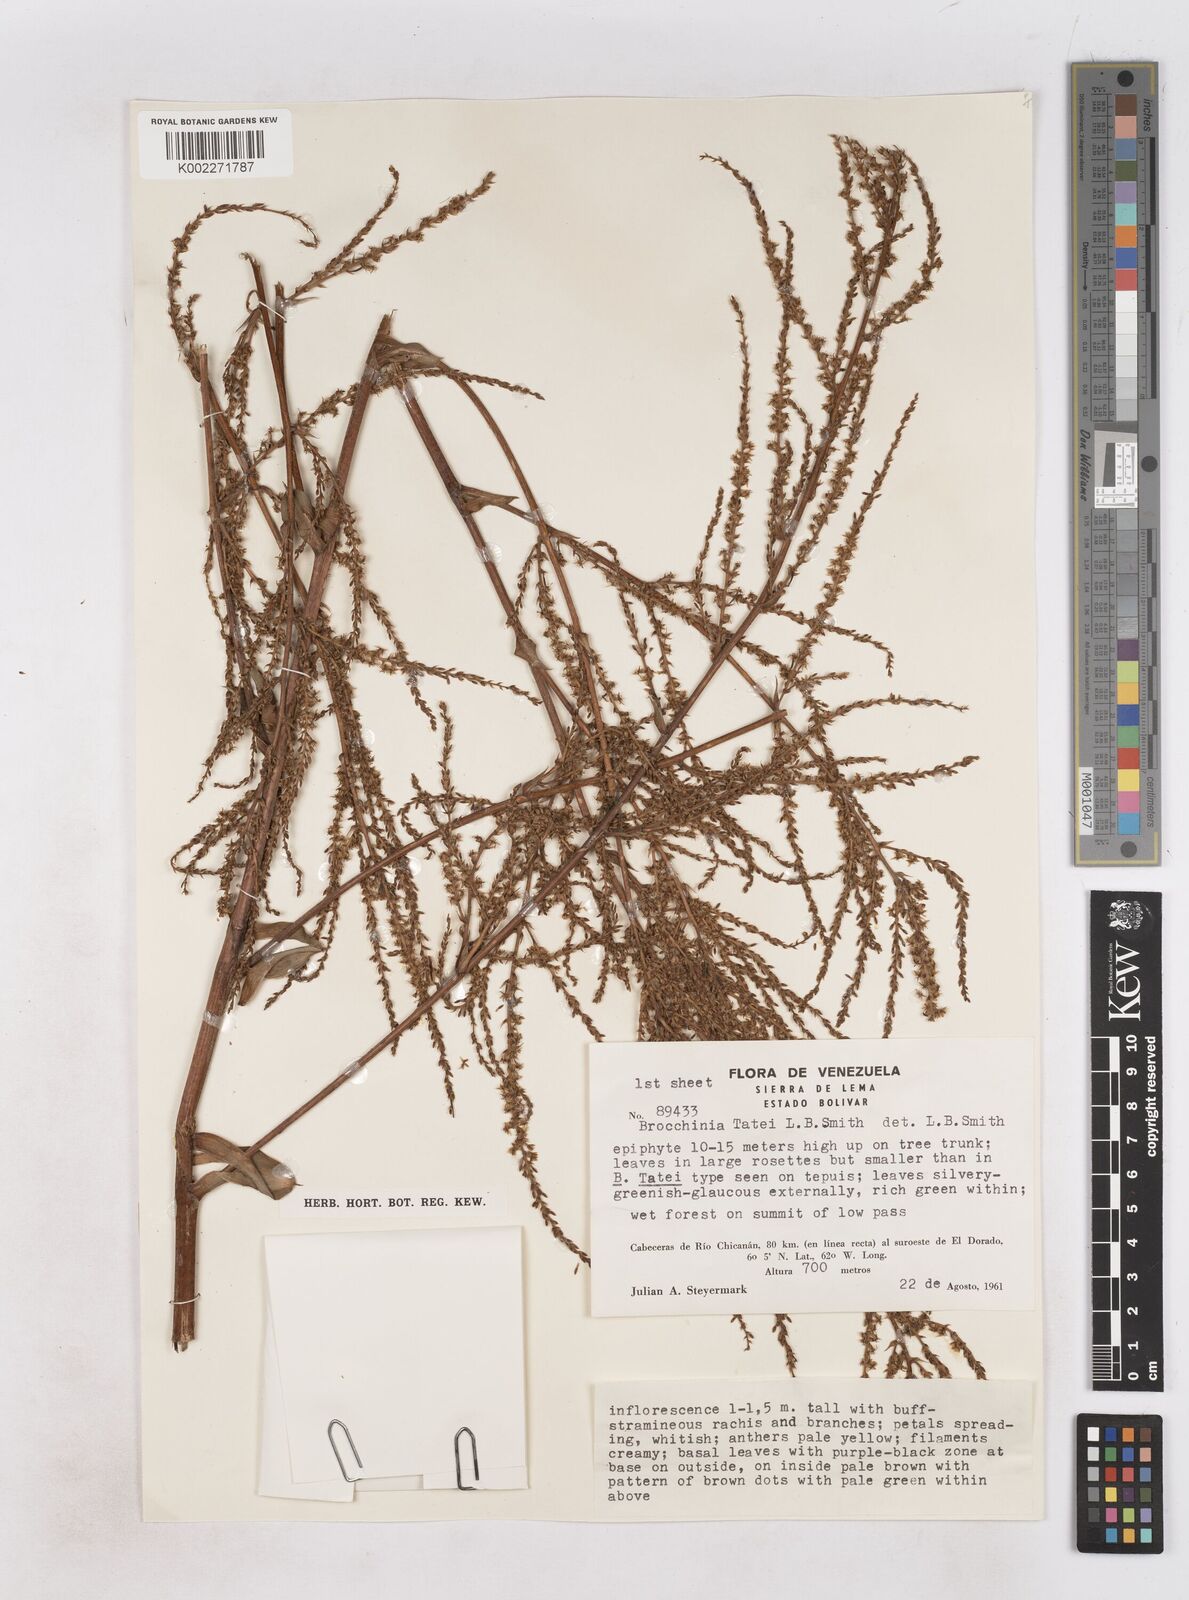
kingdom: Plantae
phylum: Tracheophyta
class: Liliopsida
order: Poales
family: Bromeliaceae
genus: Brocchinia
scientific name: Brocchinia tatei
